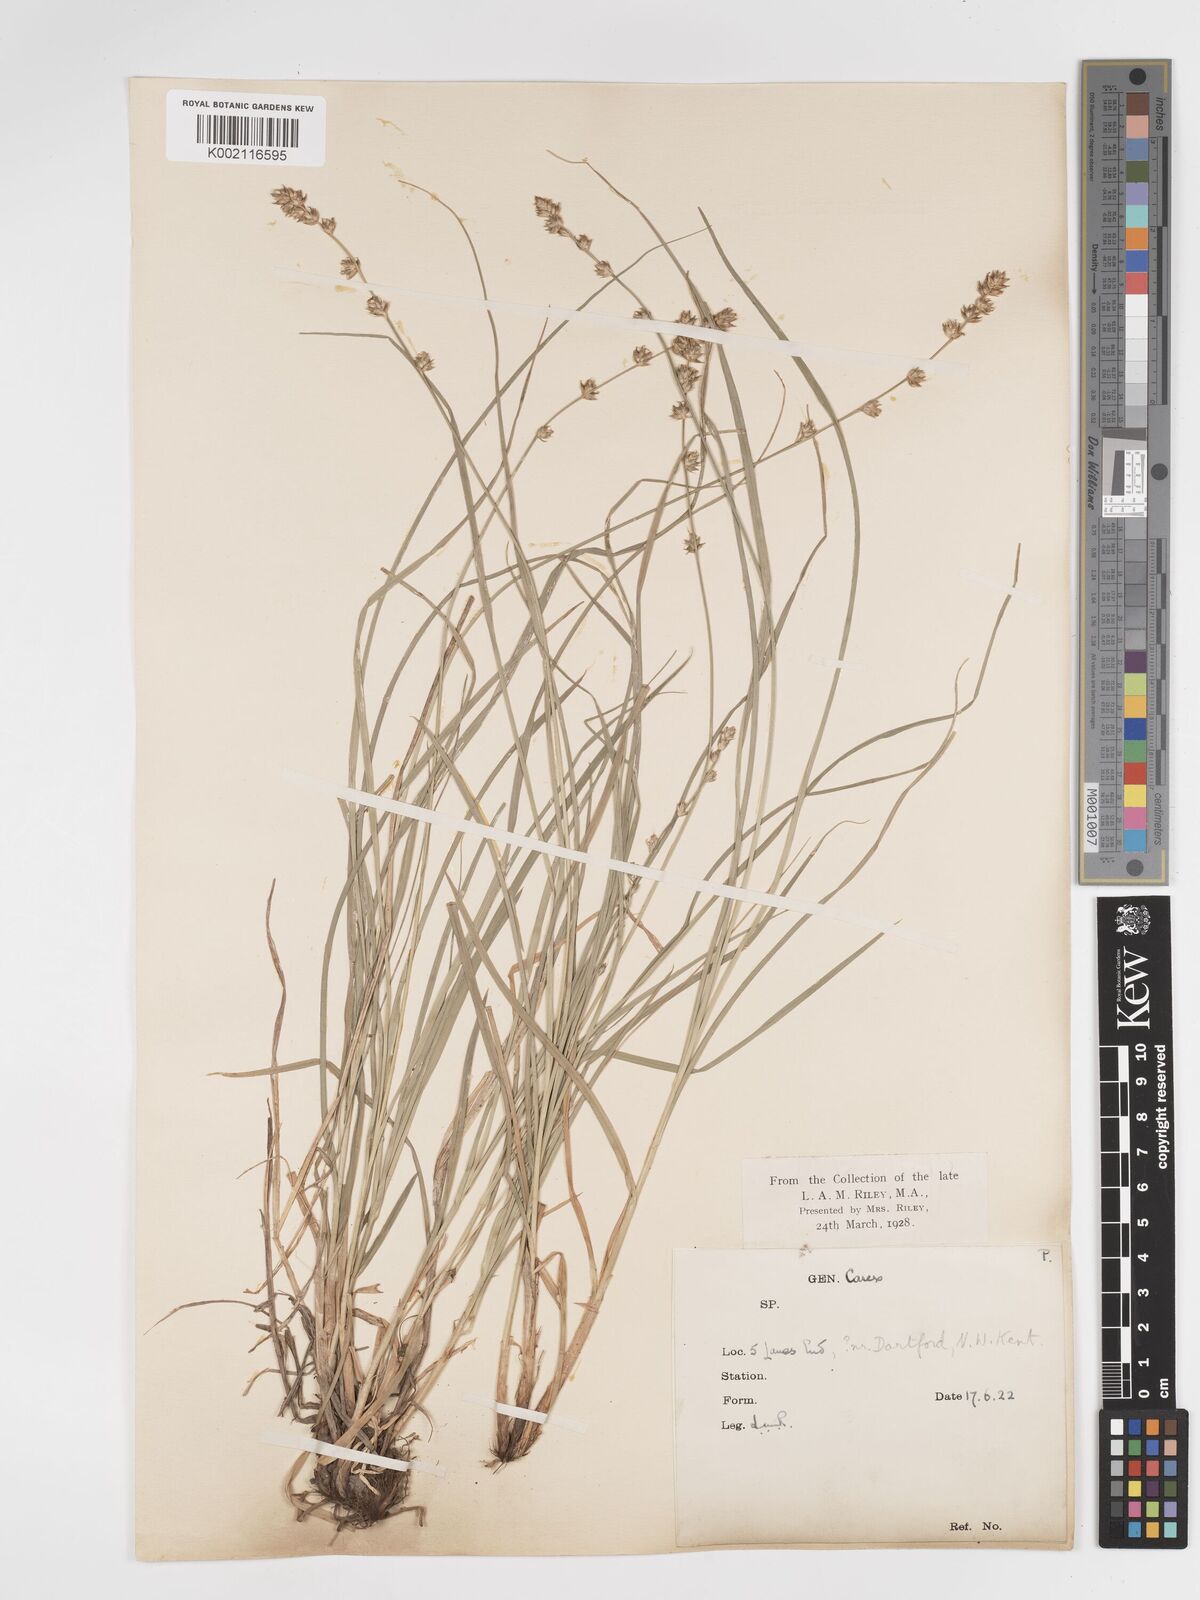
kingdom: Plantae
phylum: Tracheophyta
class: Liliopsida
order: Poales
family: Cyperaceae
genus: Carex
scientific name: Carex divulsa
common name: Grassland sedge
